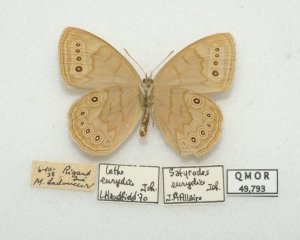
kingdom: Animalia
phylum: Arthropoda
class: Insecta
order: Lepidoptera
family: Nymphalidae
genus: Lethe
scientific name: Lethe eurydice
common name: Eyed Brown
